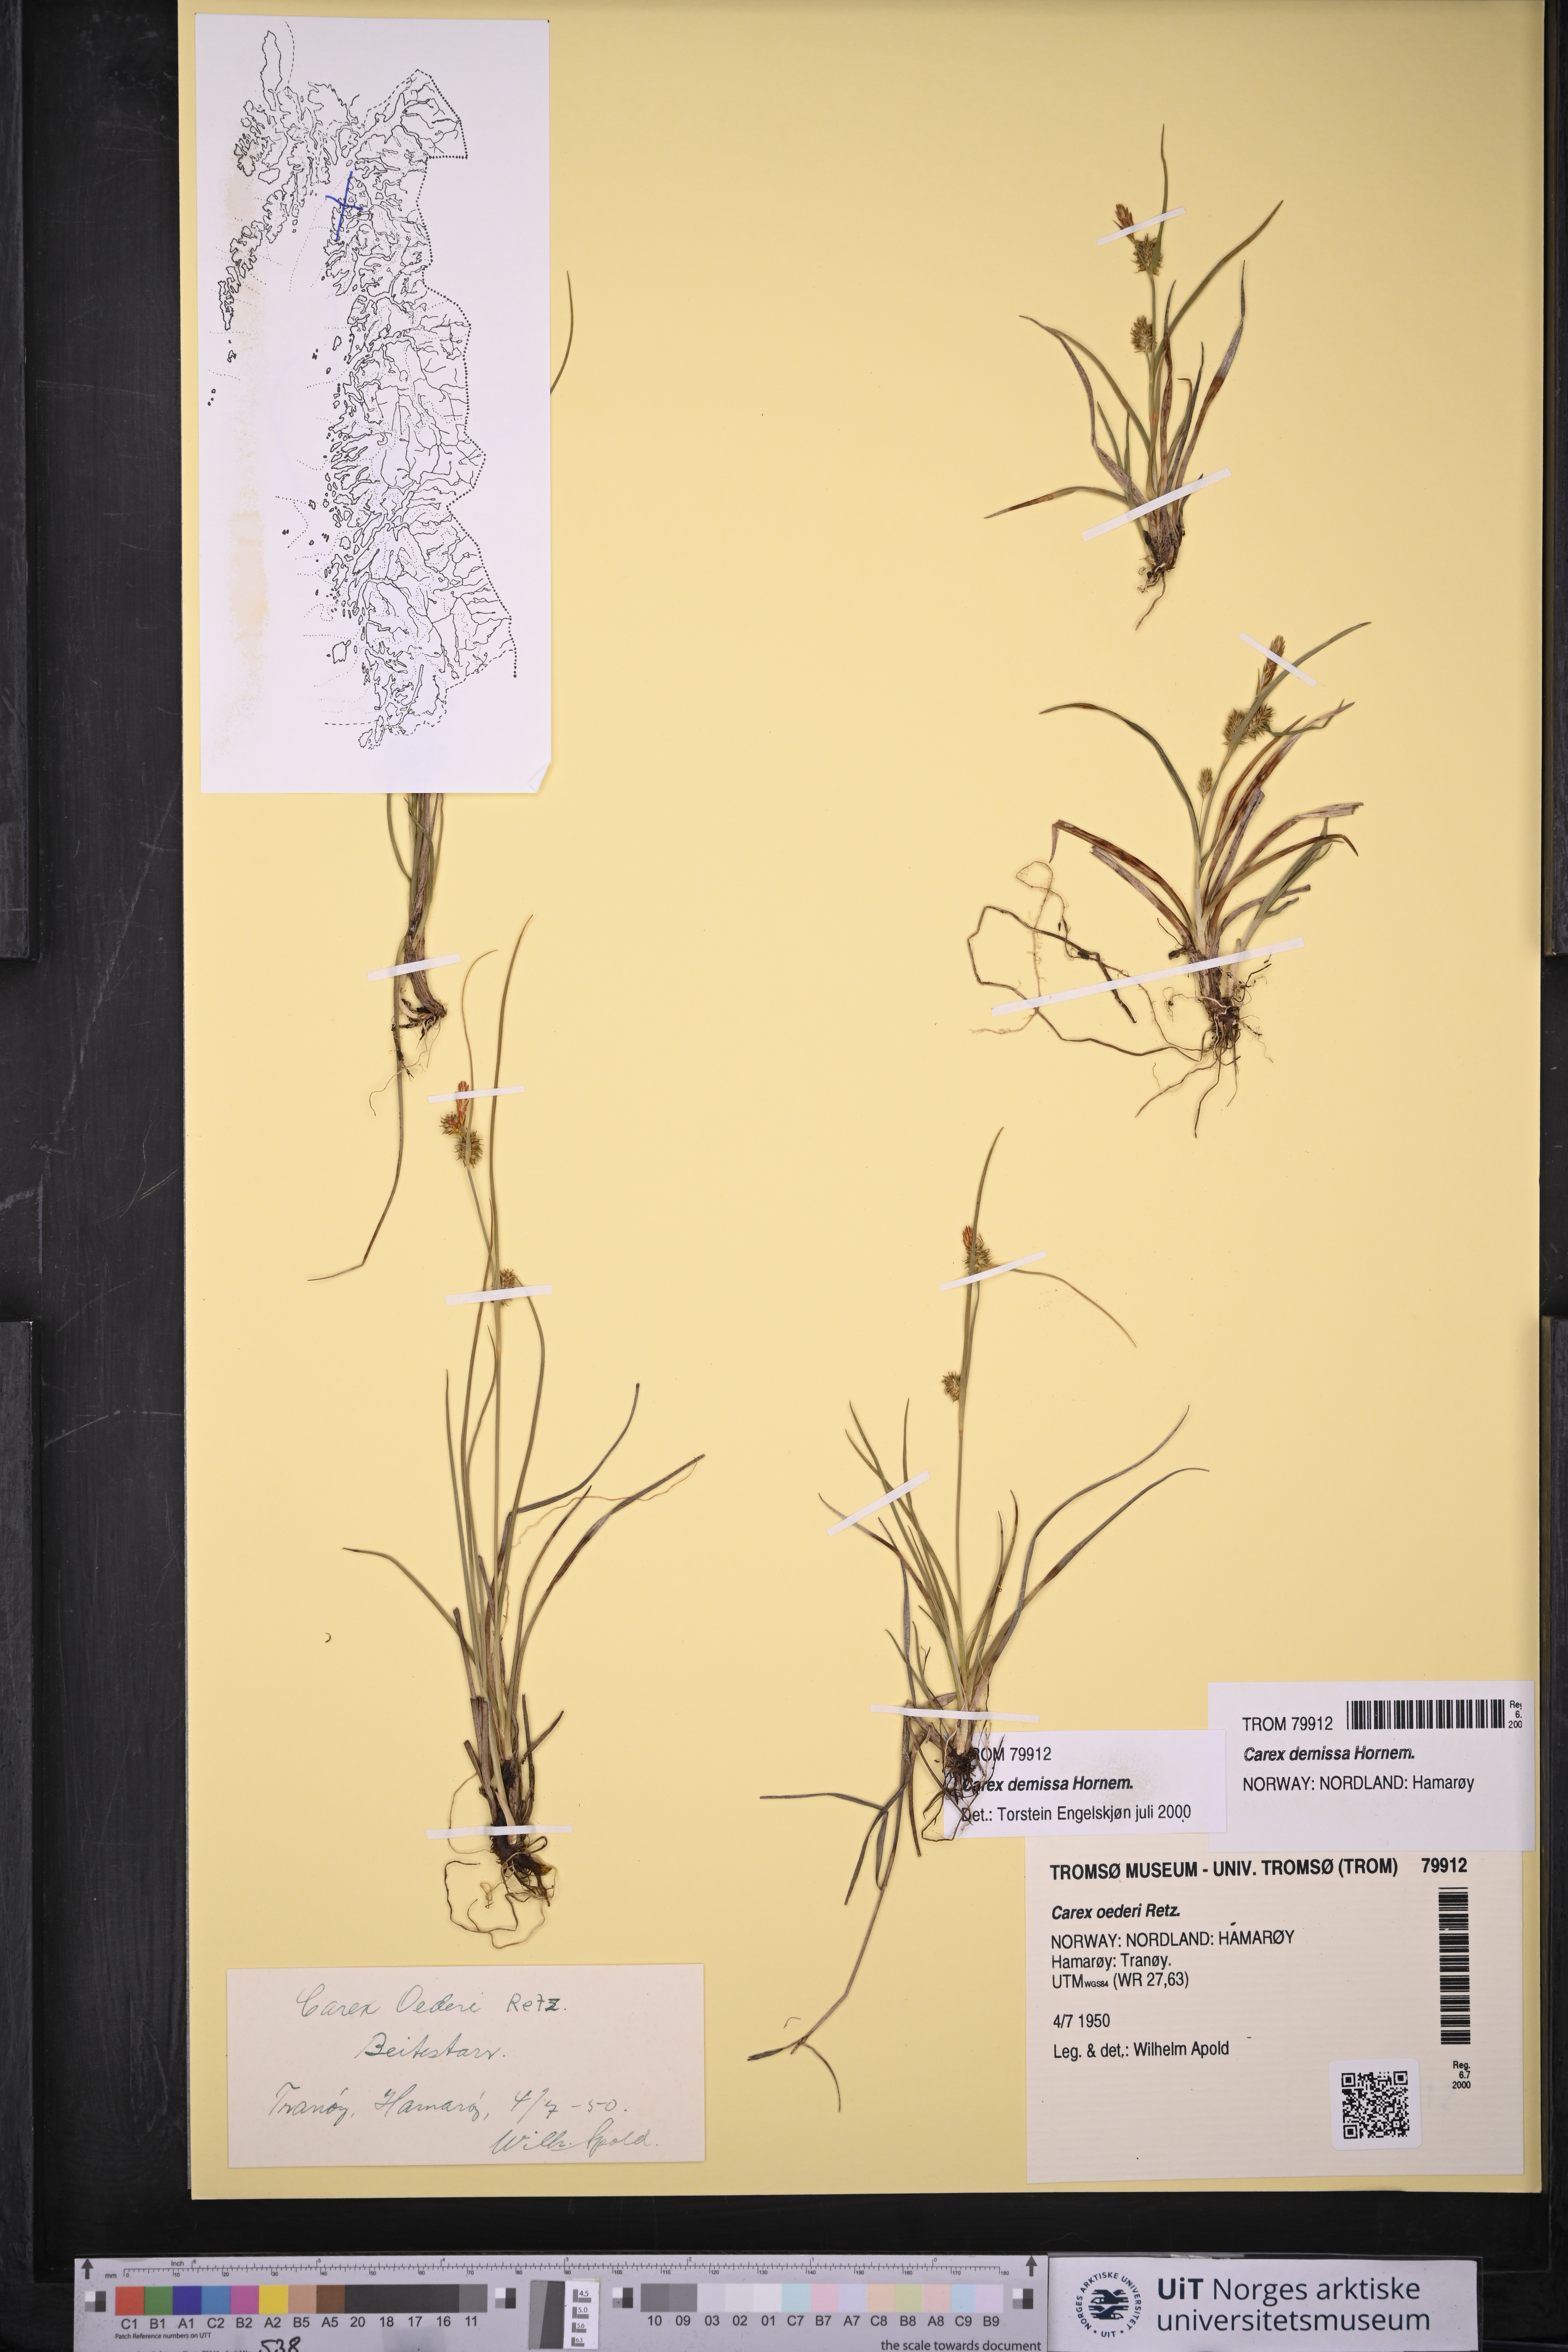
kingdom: Plantae
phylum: Tracheophyta
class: Liliopsida
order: Poales
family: Cyperaceae
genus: Carex
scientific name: Carex demissa
